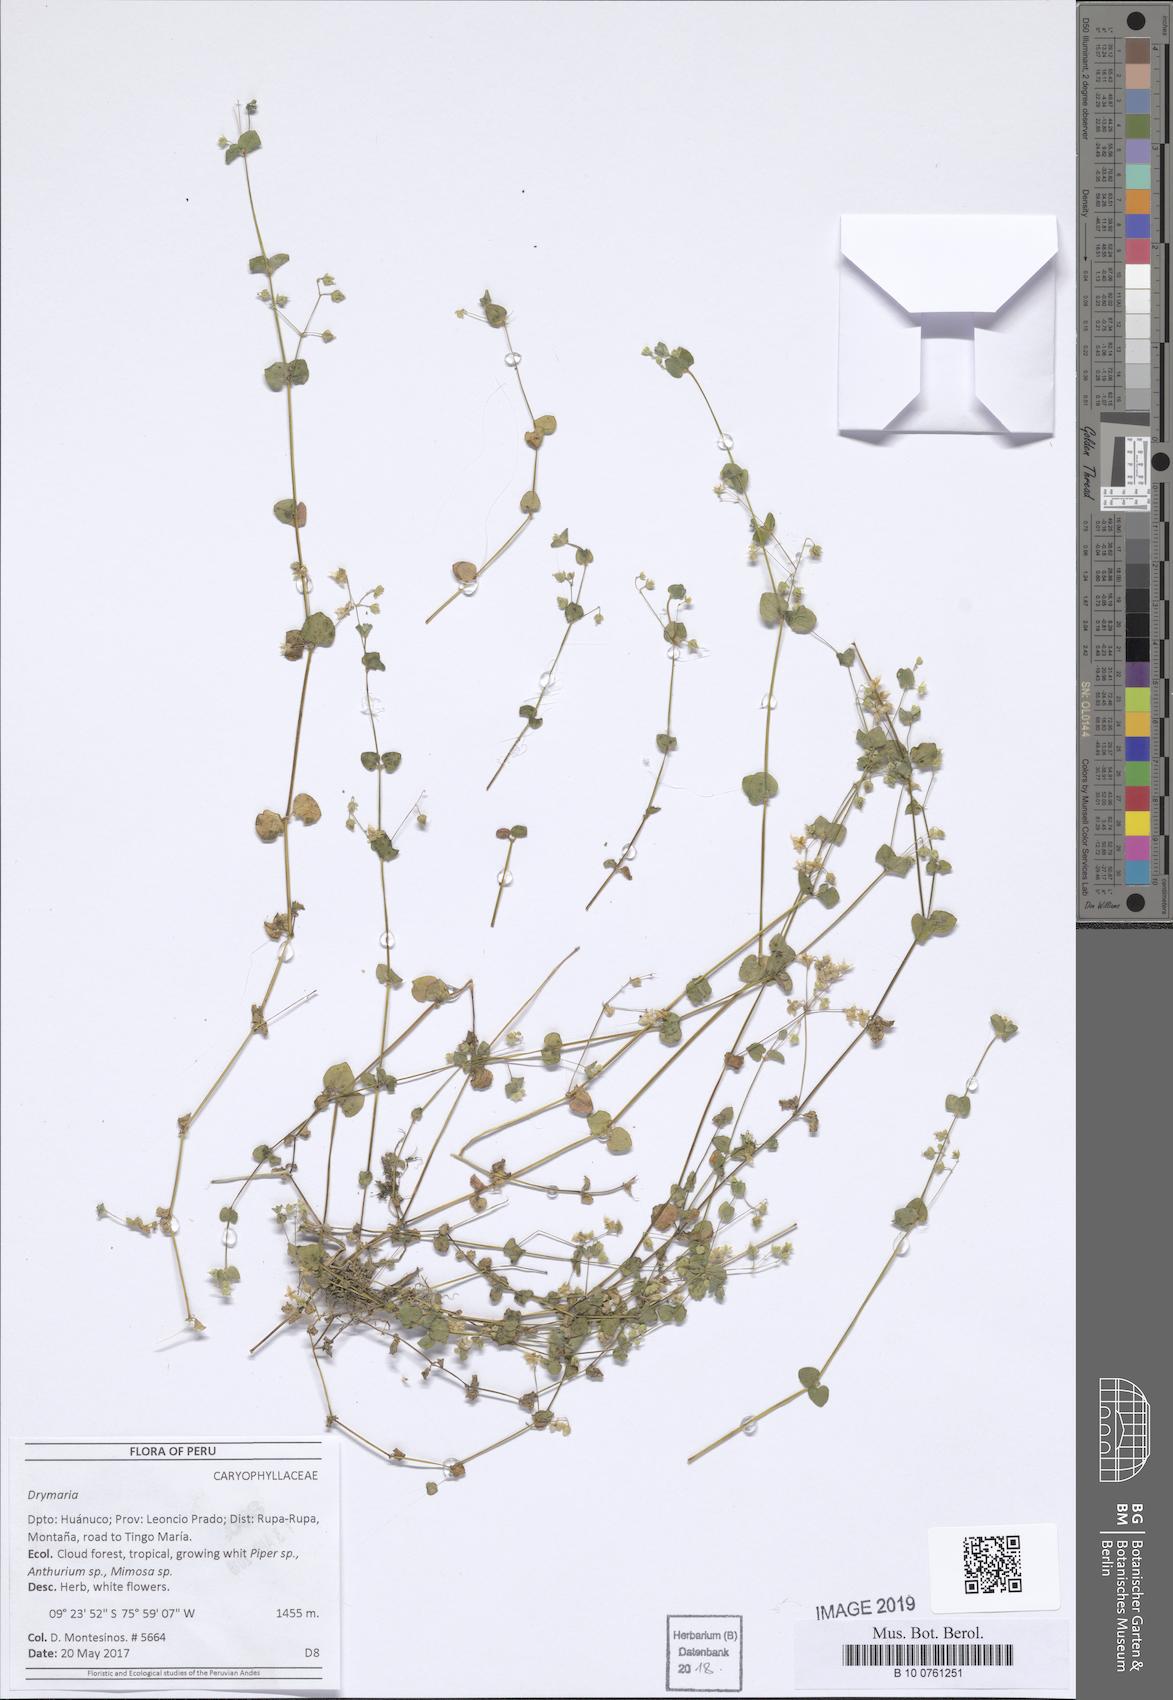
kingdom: Plantae
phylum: Tracheophyta
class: Magnoliopsida
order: Caryophyllales
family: Caryophyllaceae
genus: Drymaria
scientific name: Drymaria
